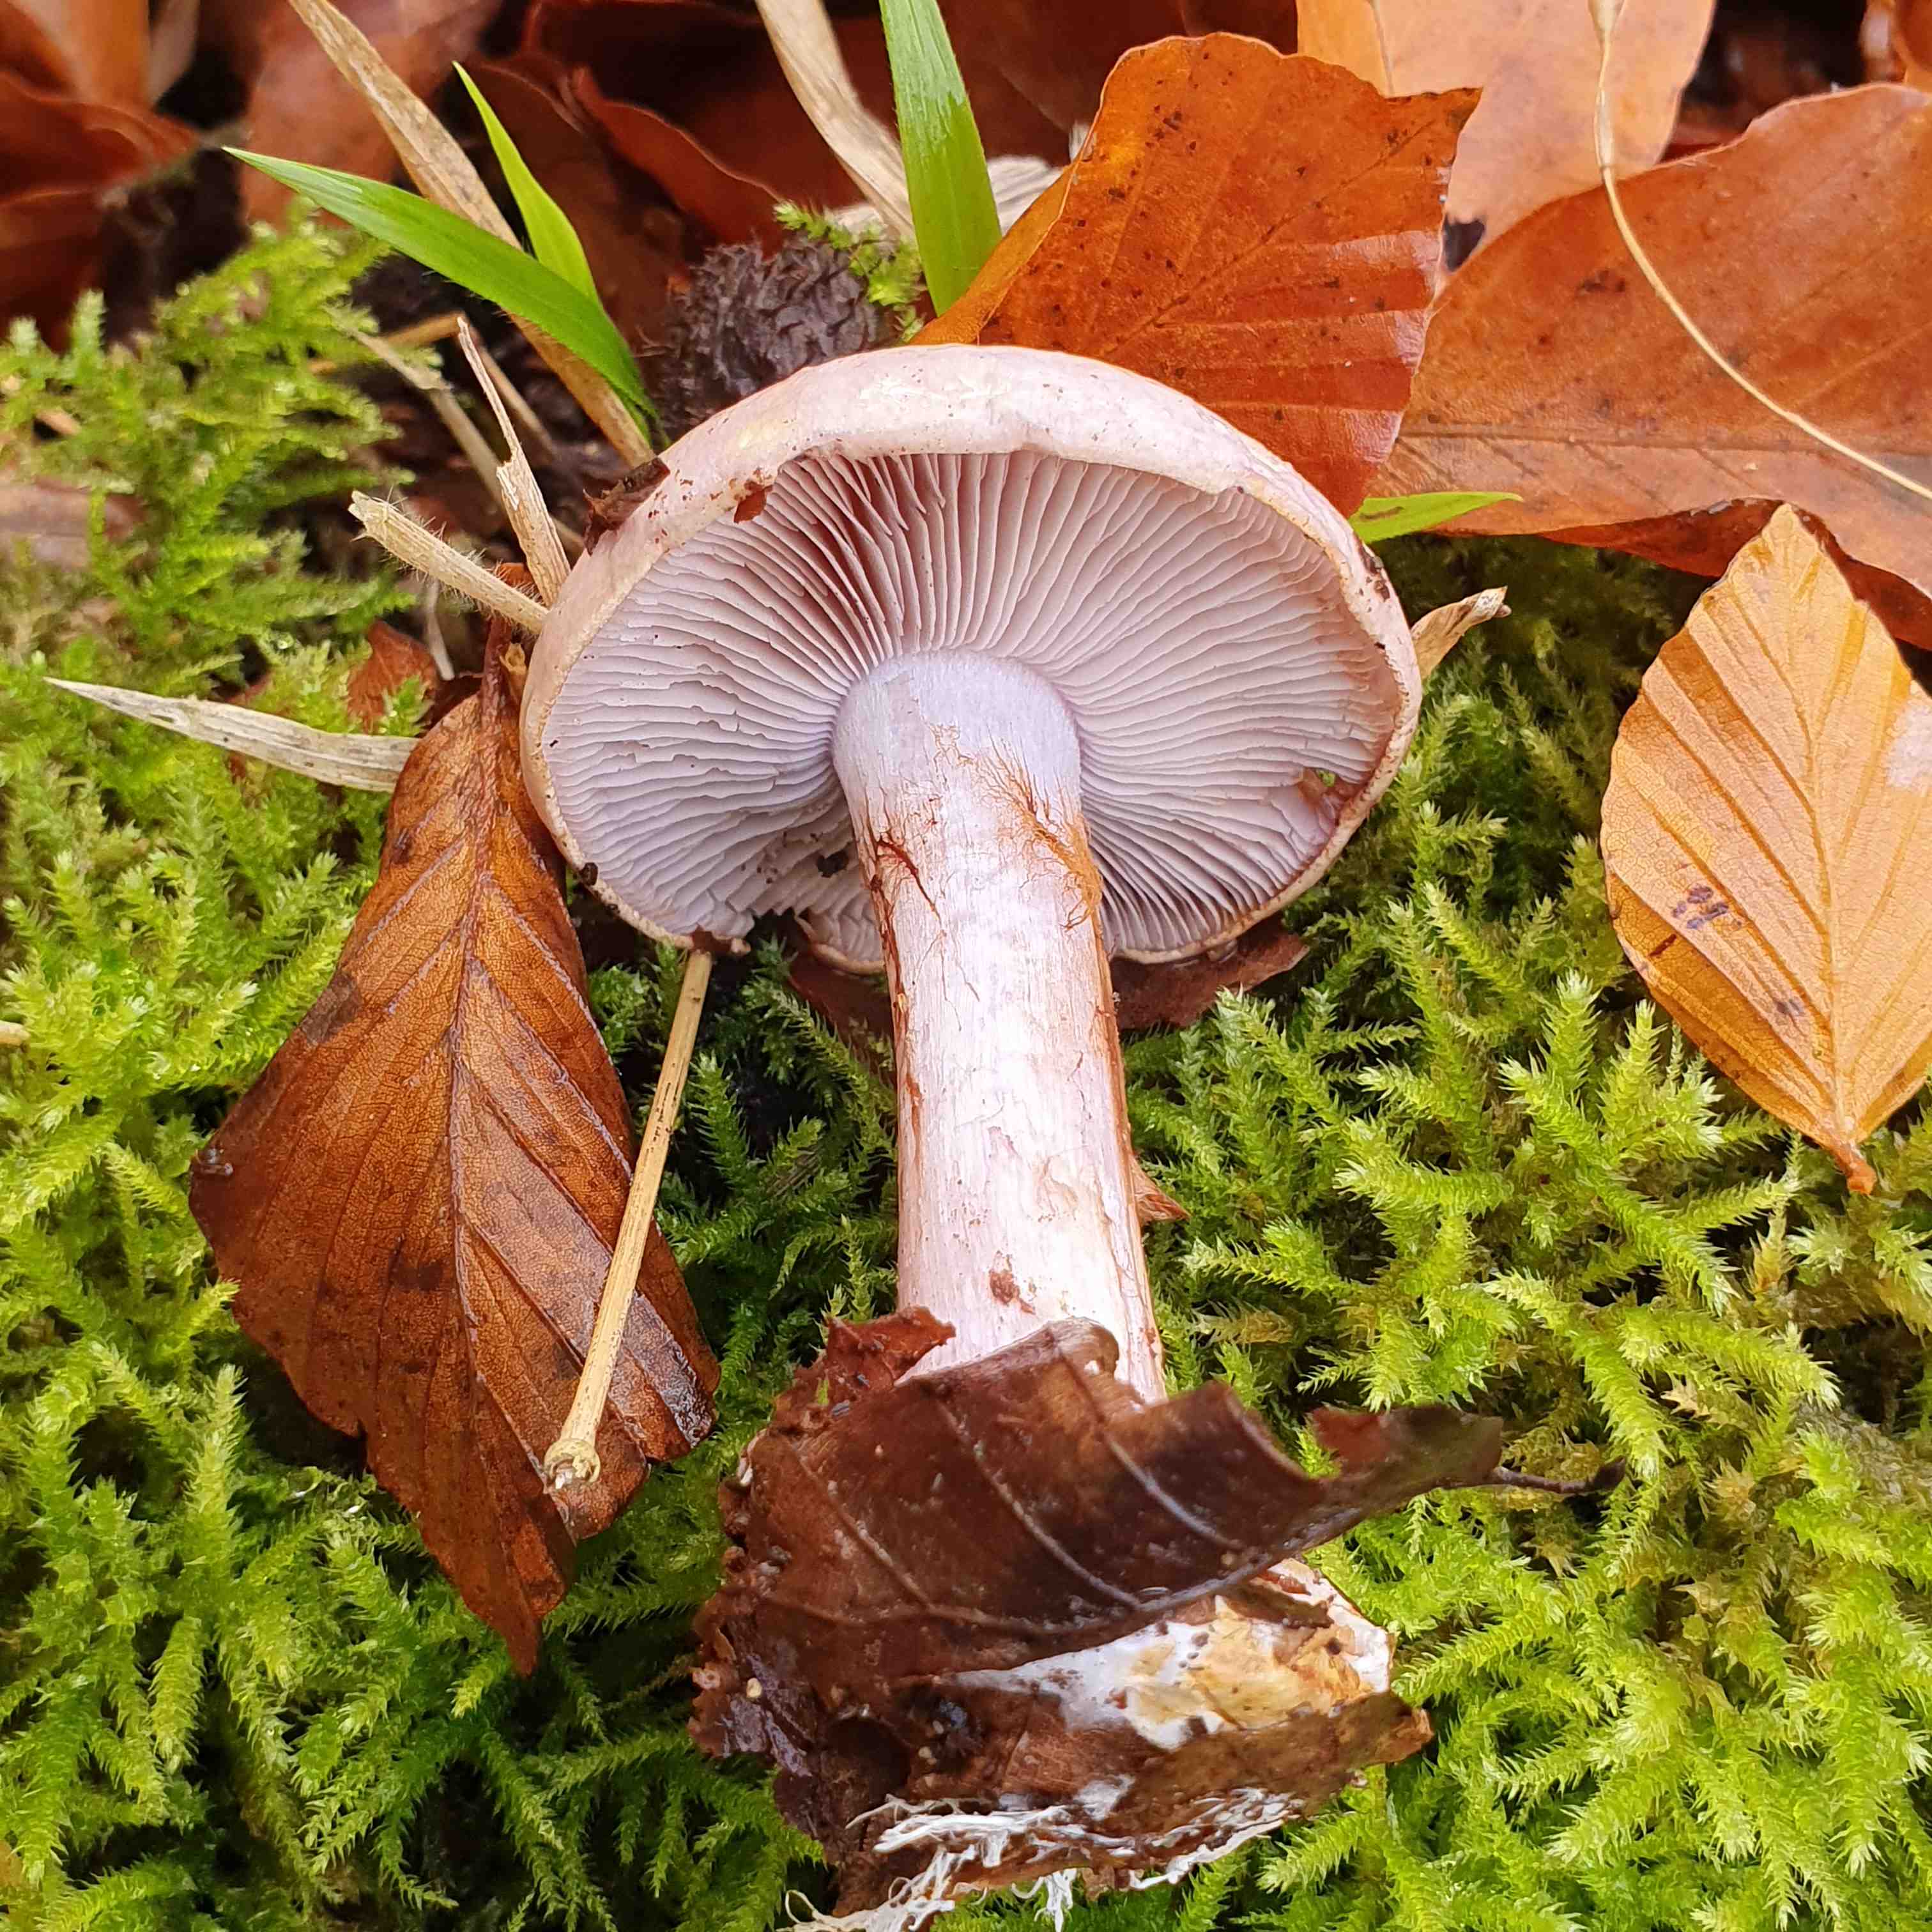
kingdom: Fungi
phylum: Basidiomycota
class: Agaricomycetes
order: Agaricales
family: Cortinariaceae
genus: Calonarius
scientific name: Calonarius sodagnitus
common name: violblå slørhat
